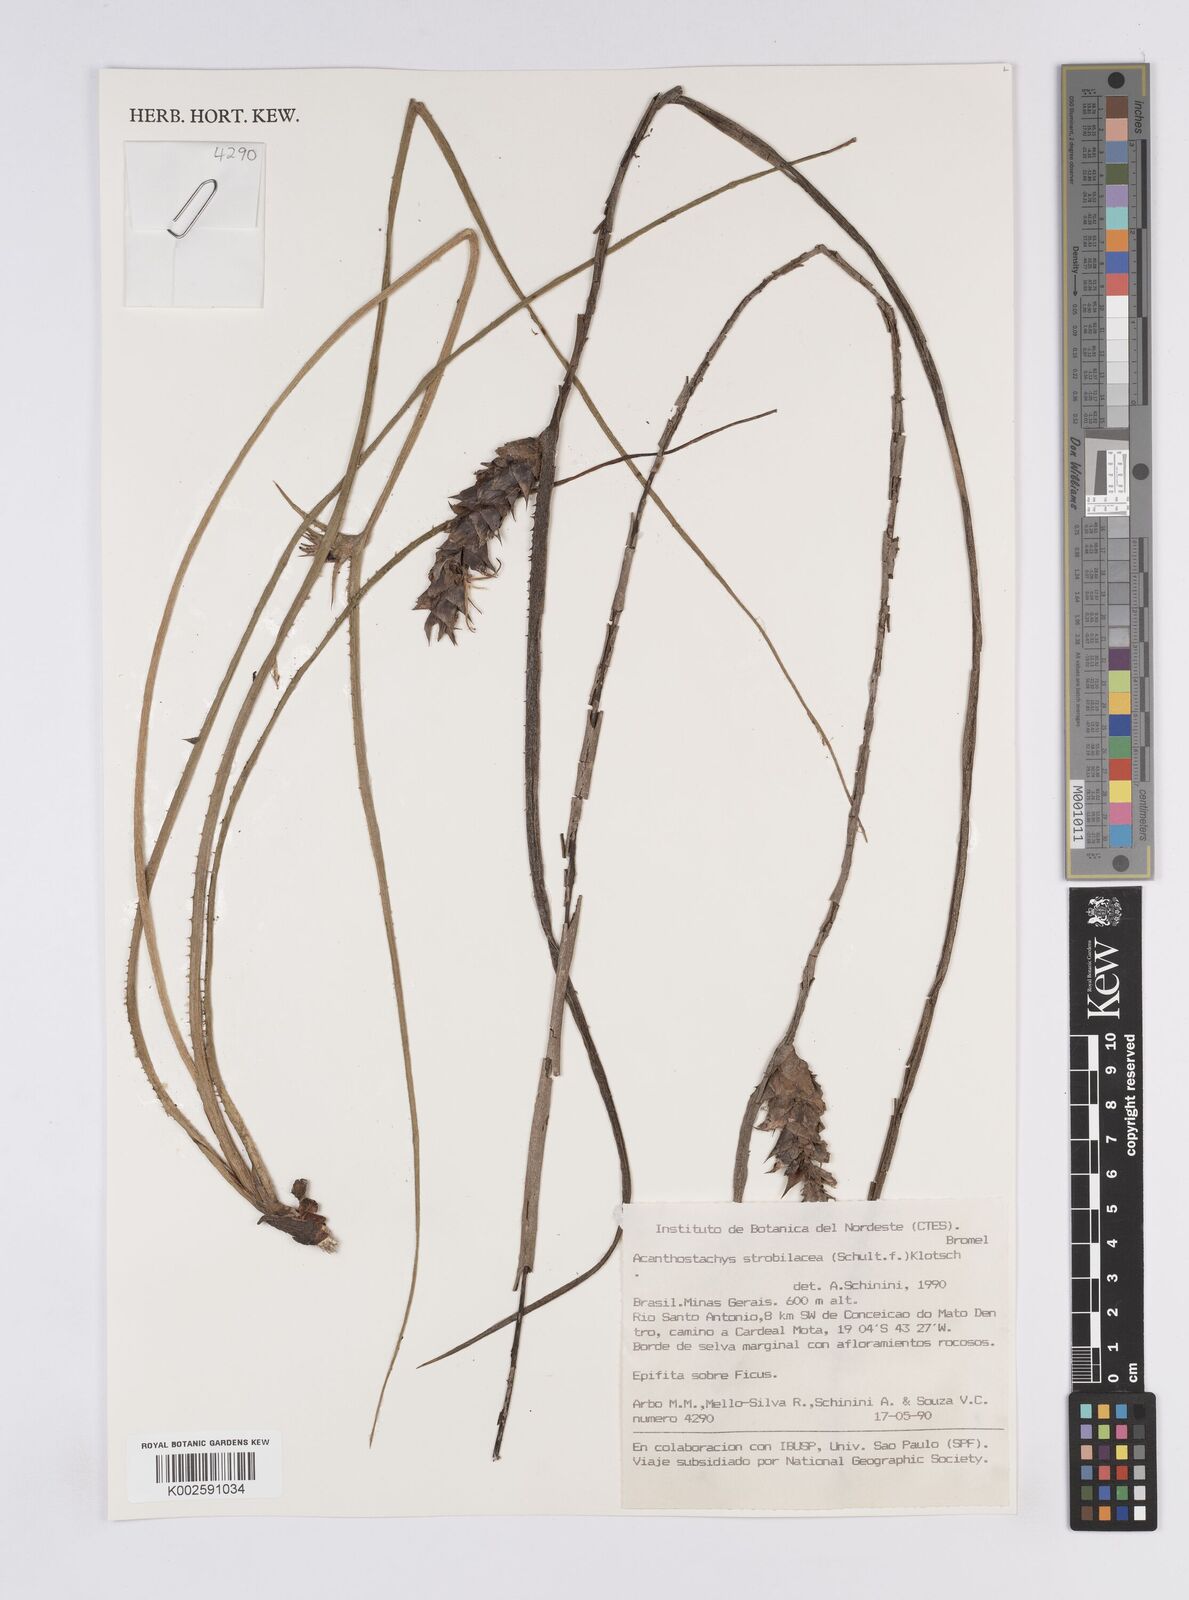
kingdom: Plantae
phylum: Tracheophyta
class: Liliopsida
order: Poales
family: Bromeliaceae
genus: Acanthostachys
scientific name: Acanthostachys strobilacea
